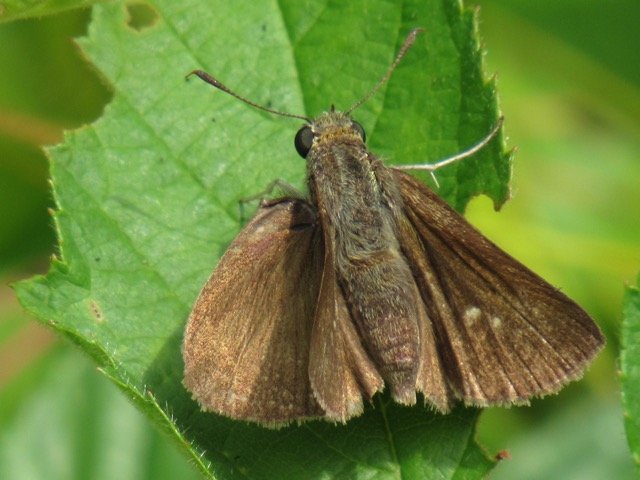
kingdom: Animalia
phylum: Arthropoda
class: Insecta
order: Lepidoptera
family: Hesperiidae
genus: Euphyes
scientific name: Euphyes vestris
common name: Dun Skipper
